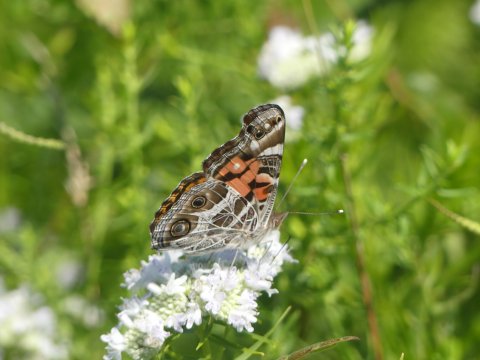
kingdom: Animalia
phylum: Arthropoda
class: Insecta
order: Lepidoptera
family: Nymphalidae
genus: Vanessa
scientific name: Vanessa virginiensis
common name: American Lady
